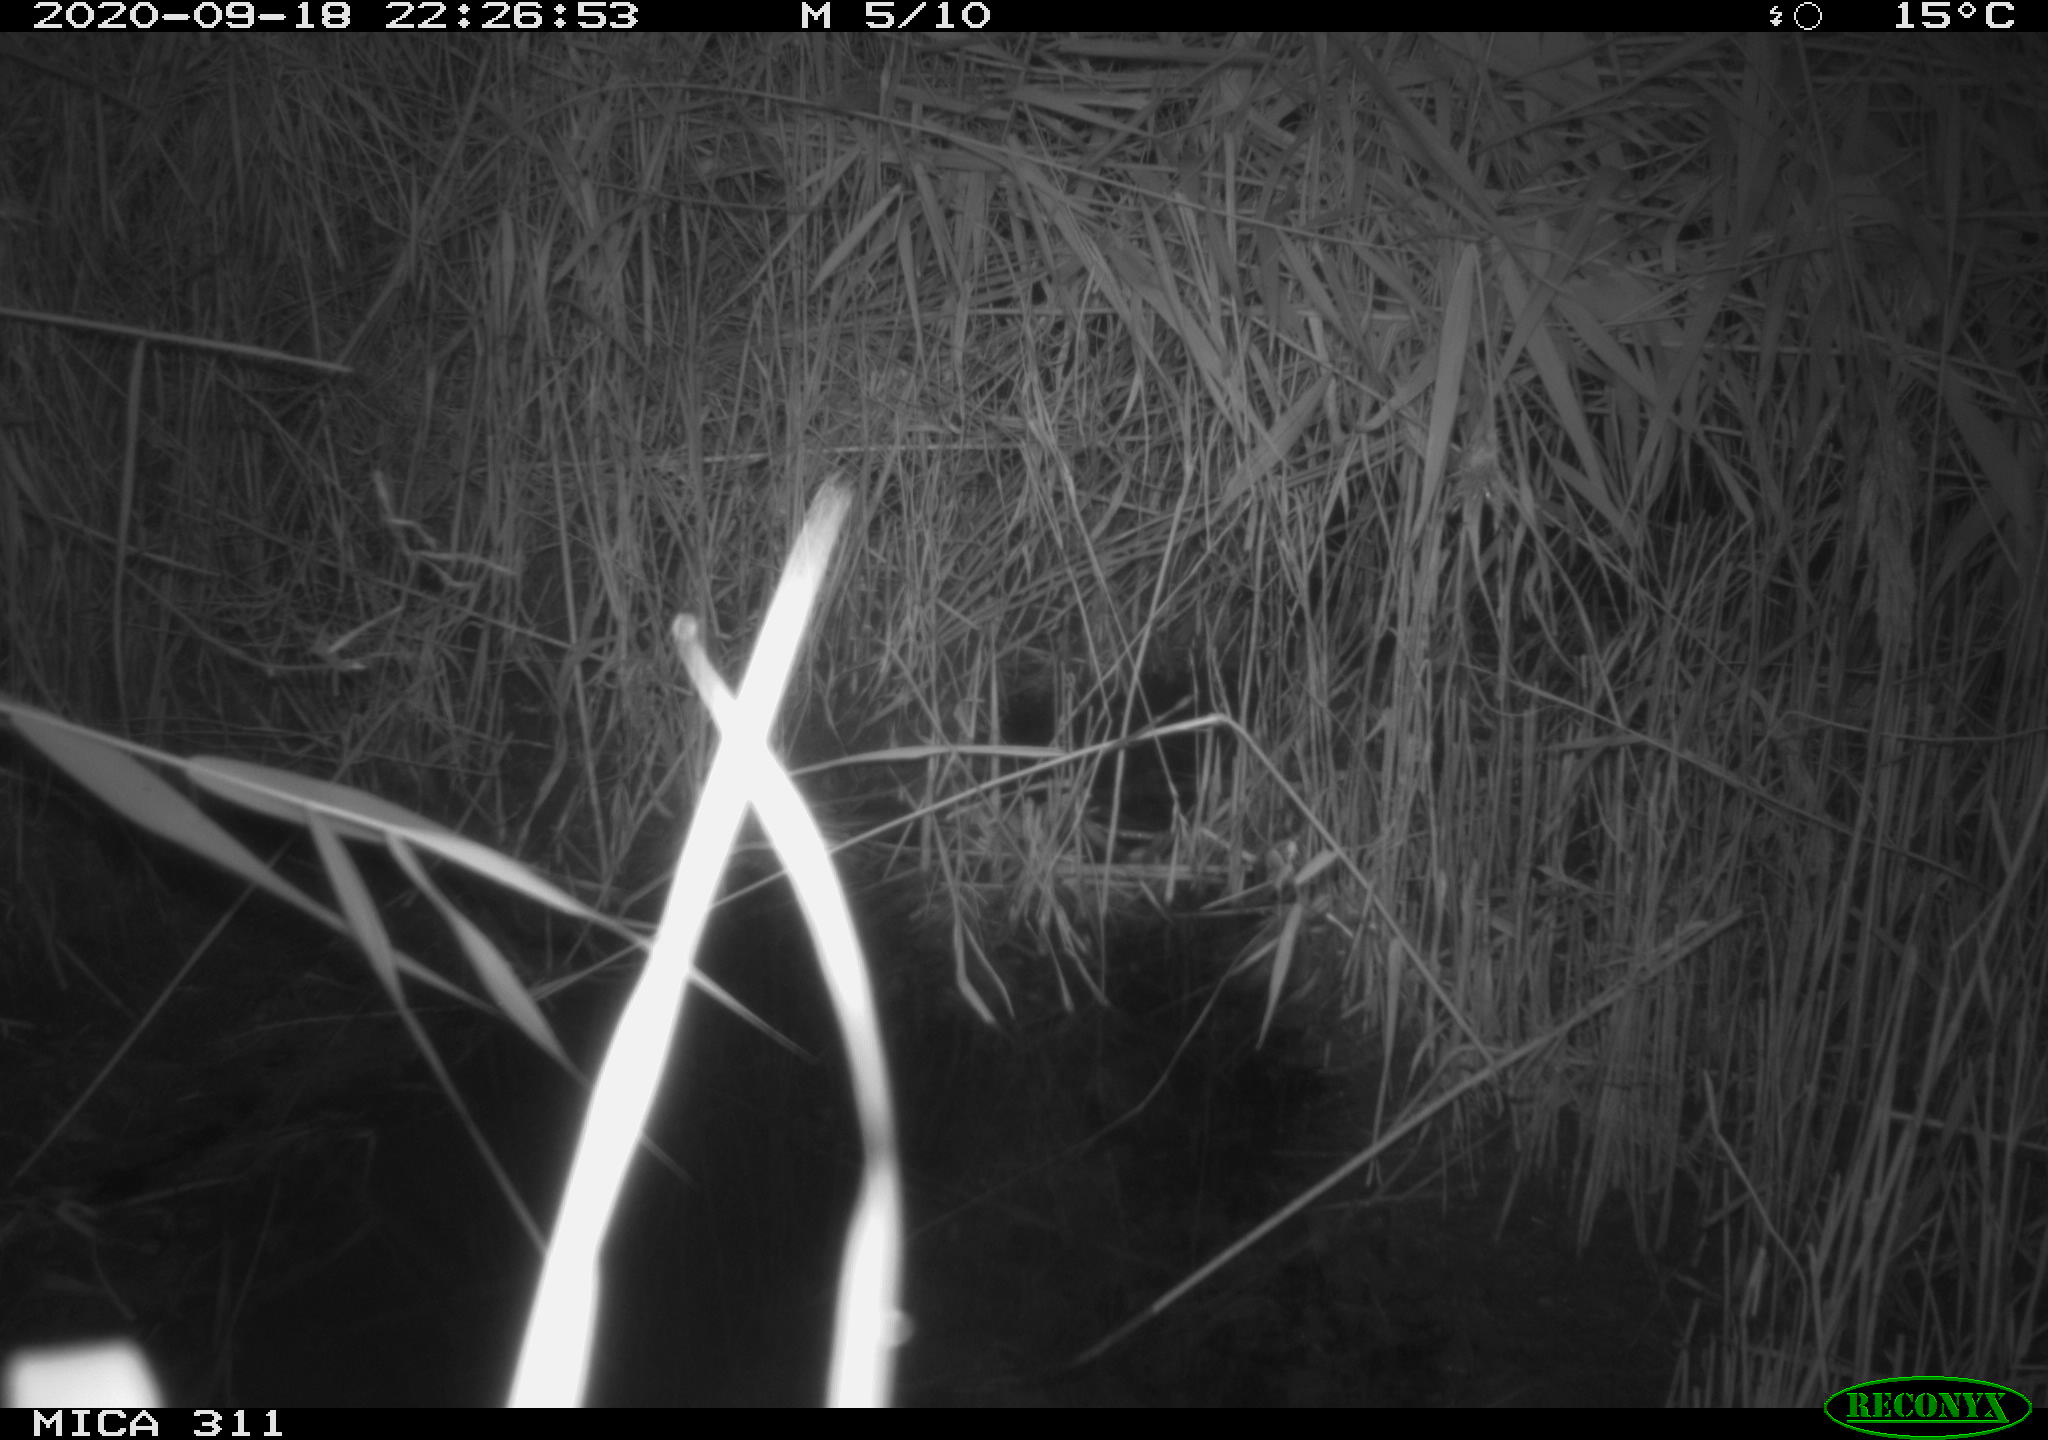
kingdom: Animalia
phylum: Chordata
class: Mammalia
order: Rodentia
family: Muridae
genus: Rattus
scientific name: Rattus norvegicus
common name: Brown rat
